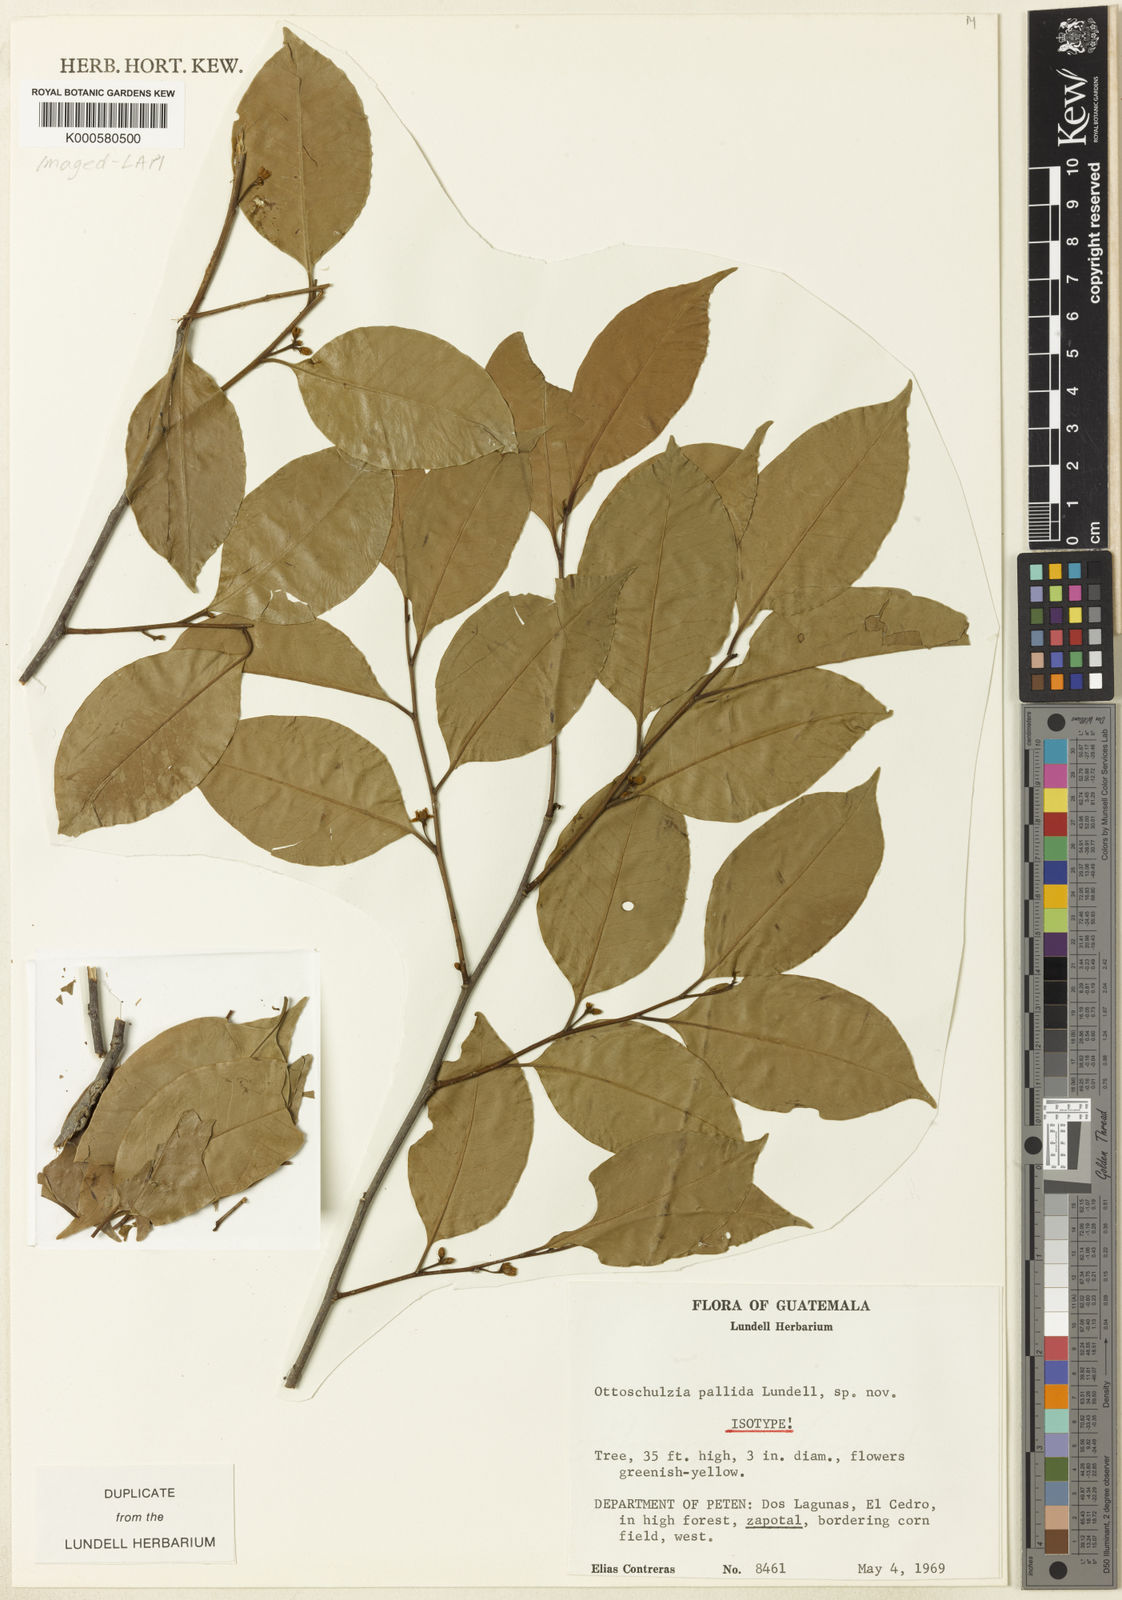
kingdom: Plantae
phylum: Tracheophyta
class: Magnoliopsida
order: Metteniusales
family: Metteniusaceae
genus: Ottoschulzia
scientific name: Ottoschulzia pallida
